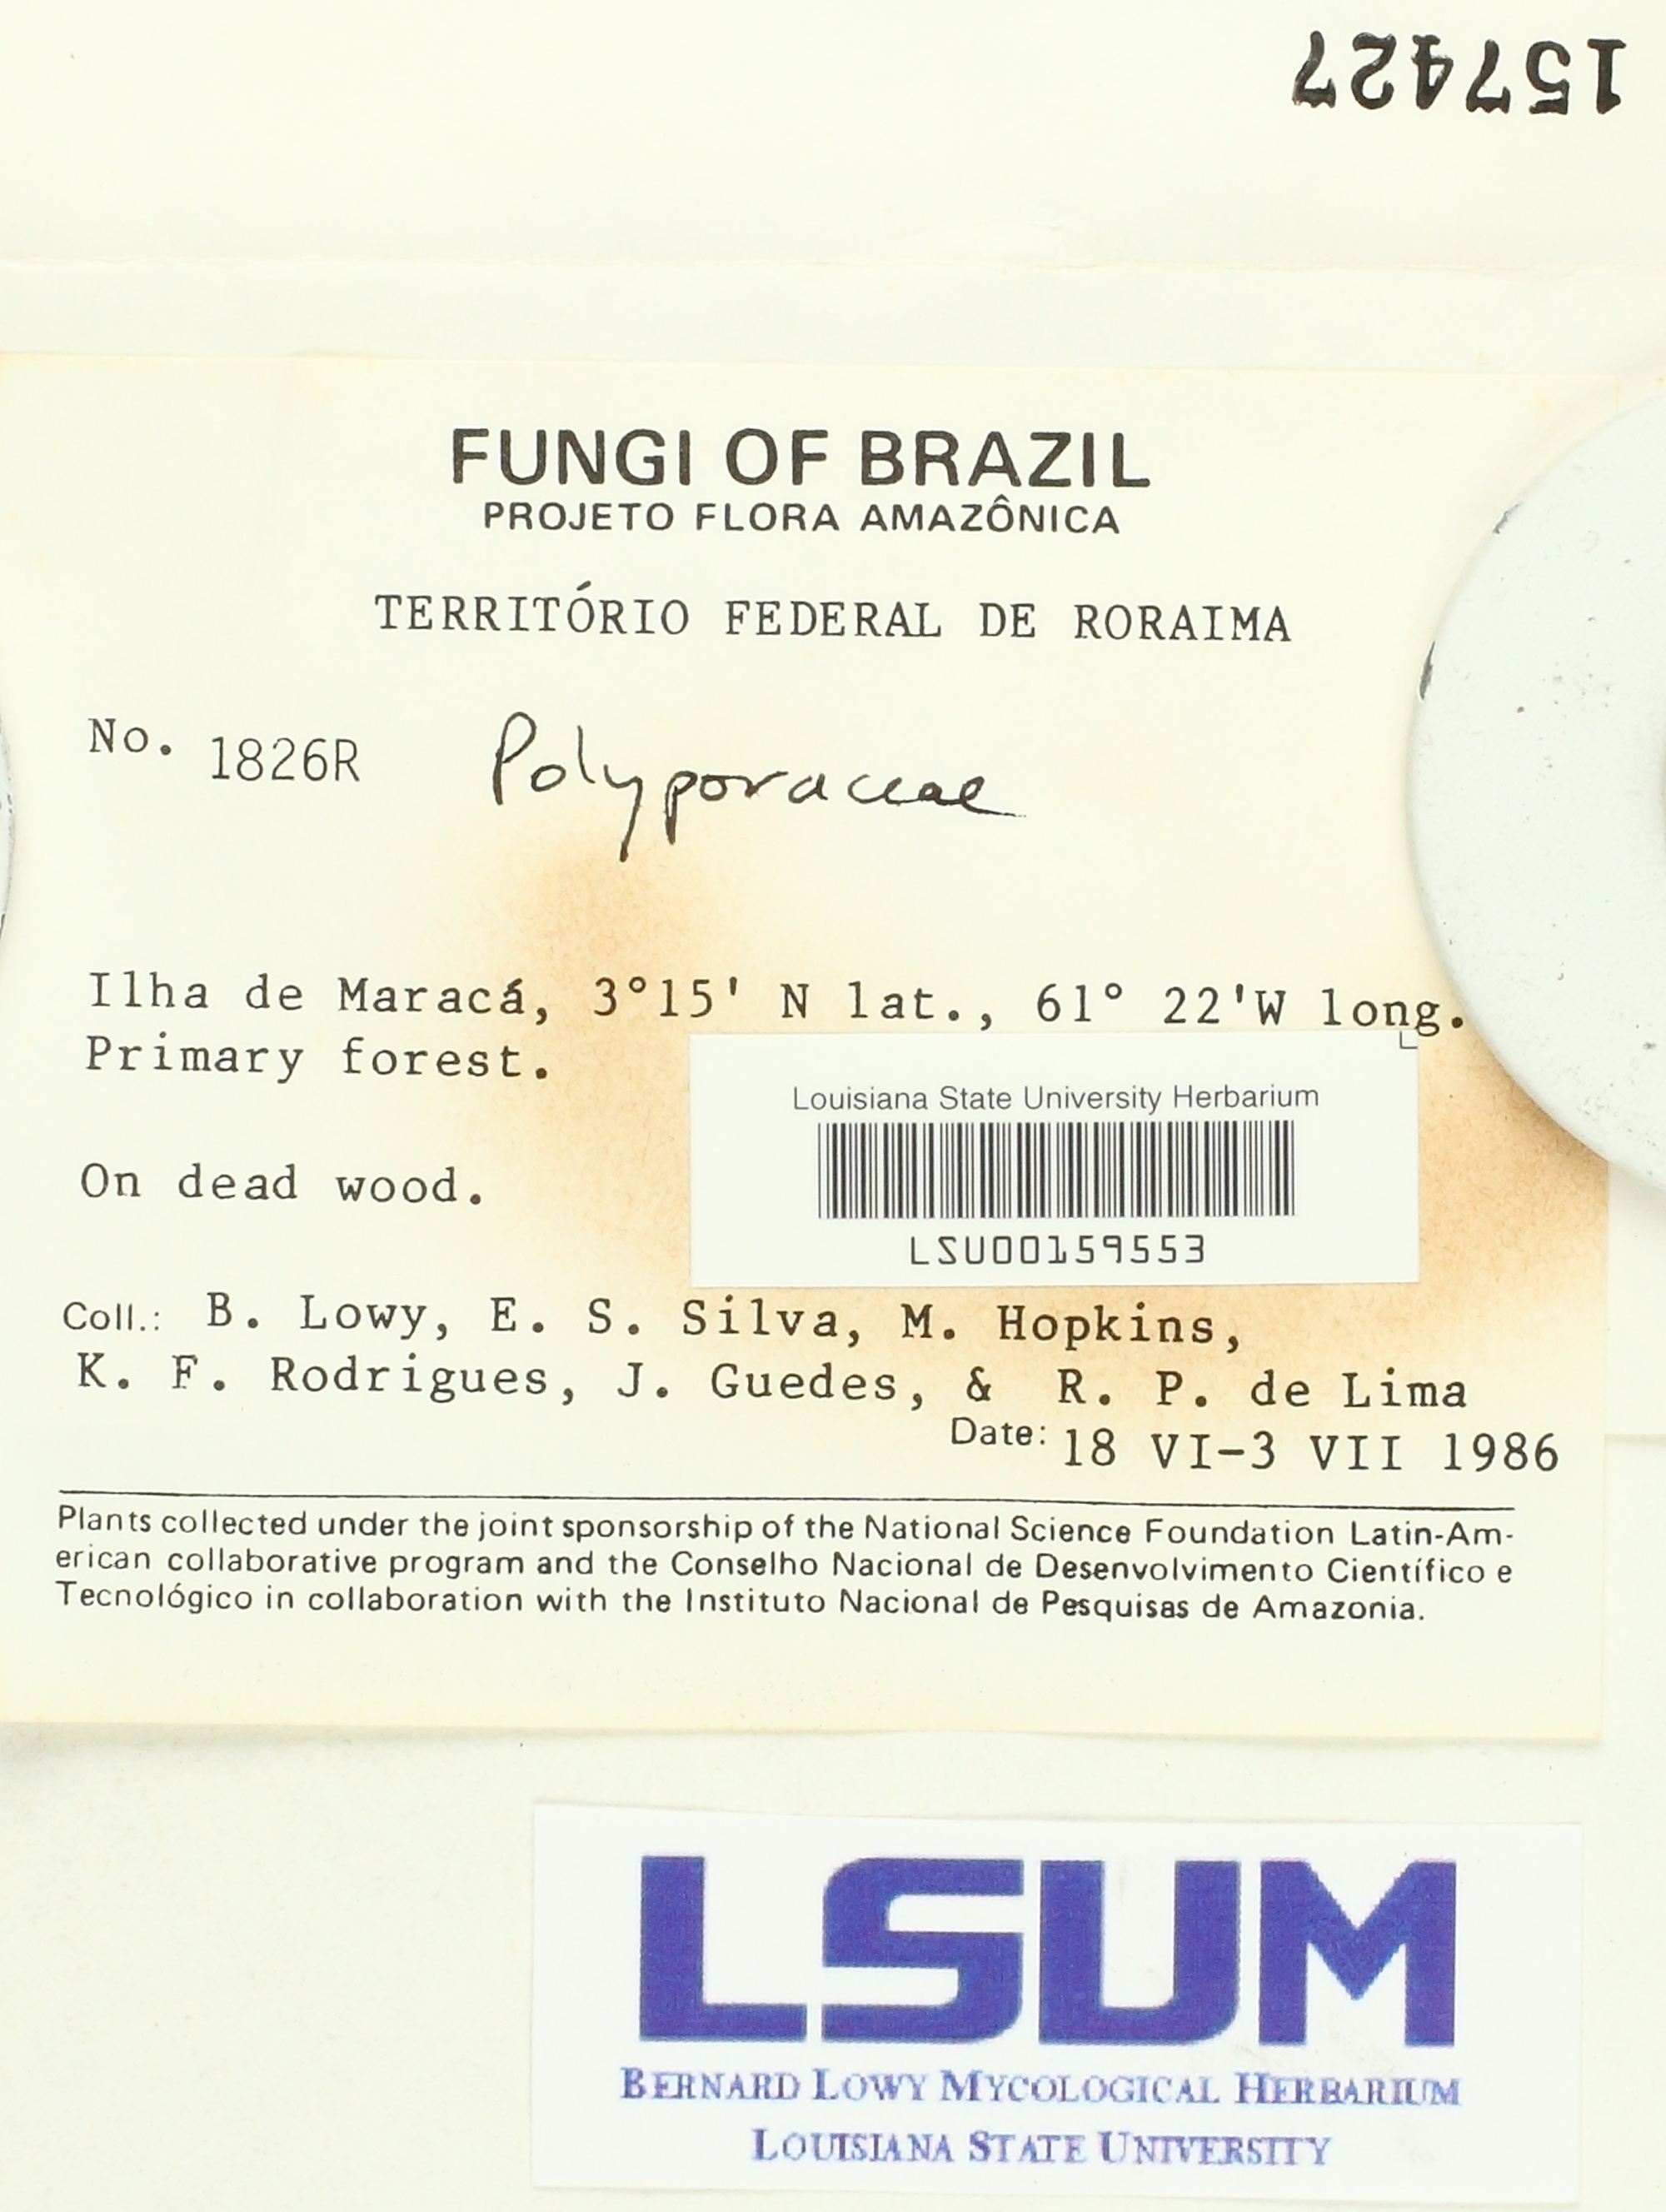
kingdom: Fungi
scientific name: Fungi
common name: Fungi
